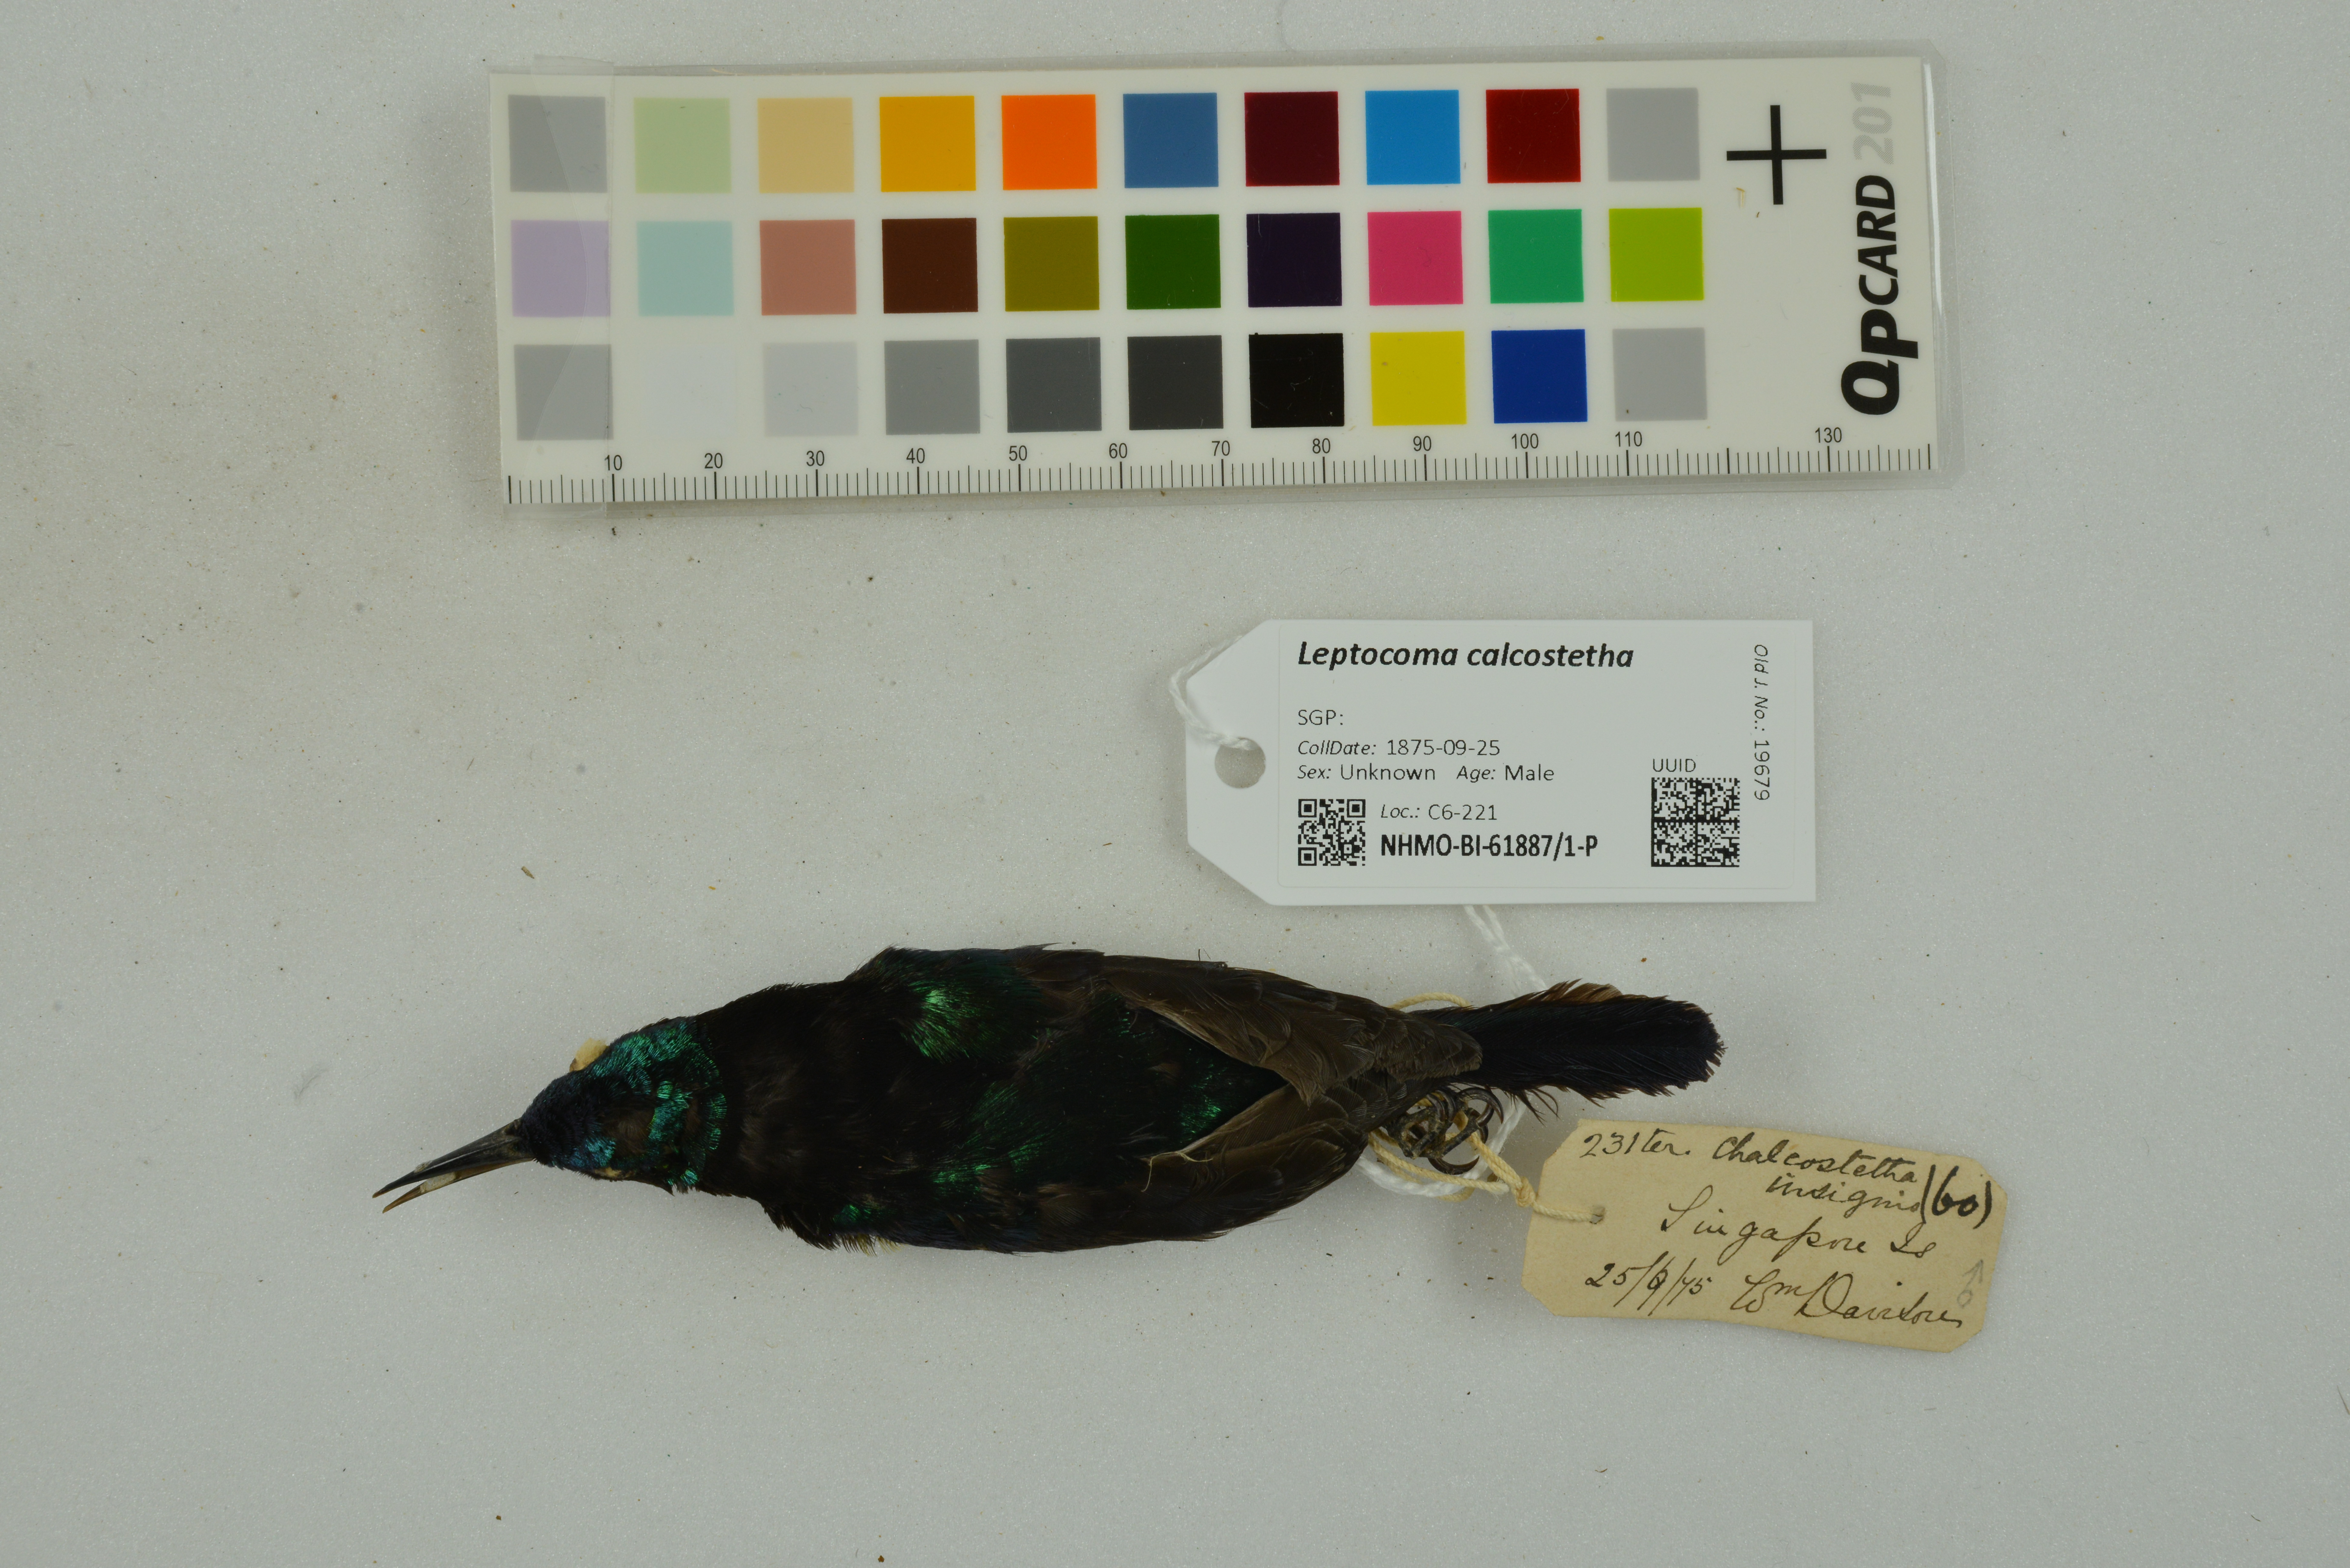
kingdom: Animalia
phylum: Chordata
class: Aves
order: Passeriformes
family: Nectariniidae
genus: Leptocoma
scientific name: Leptocoma calcostetha
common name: Copper-throated sunbird
